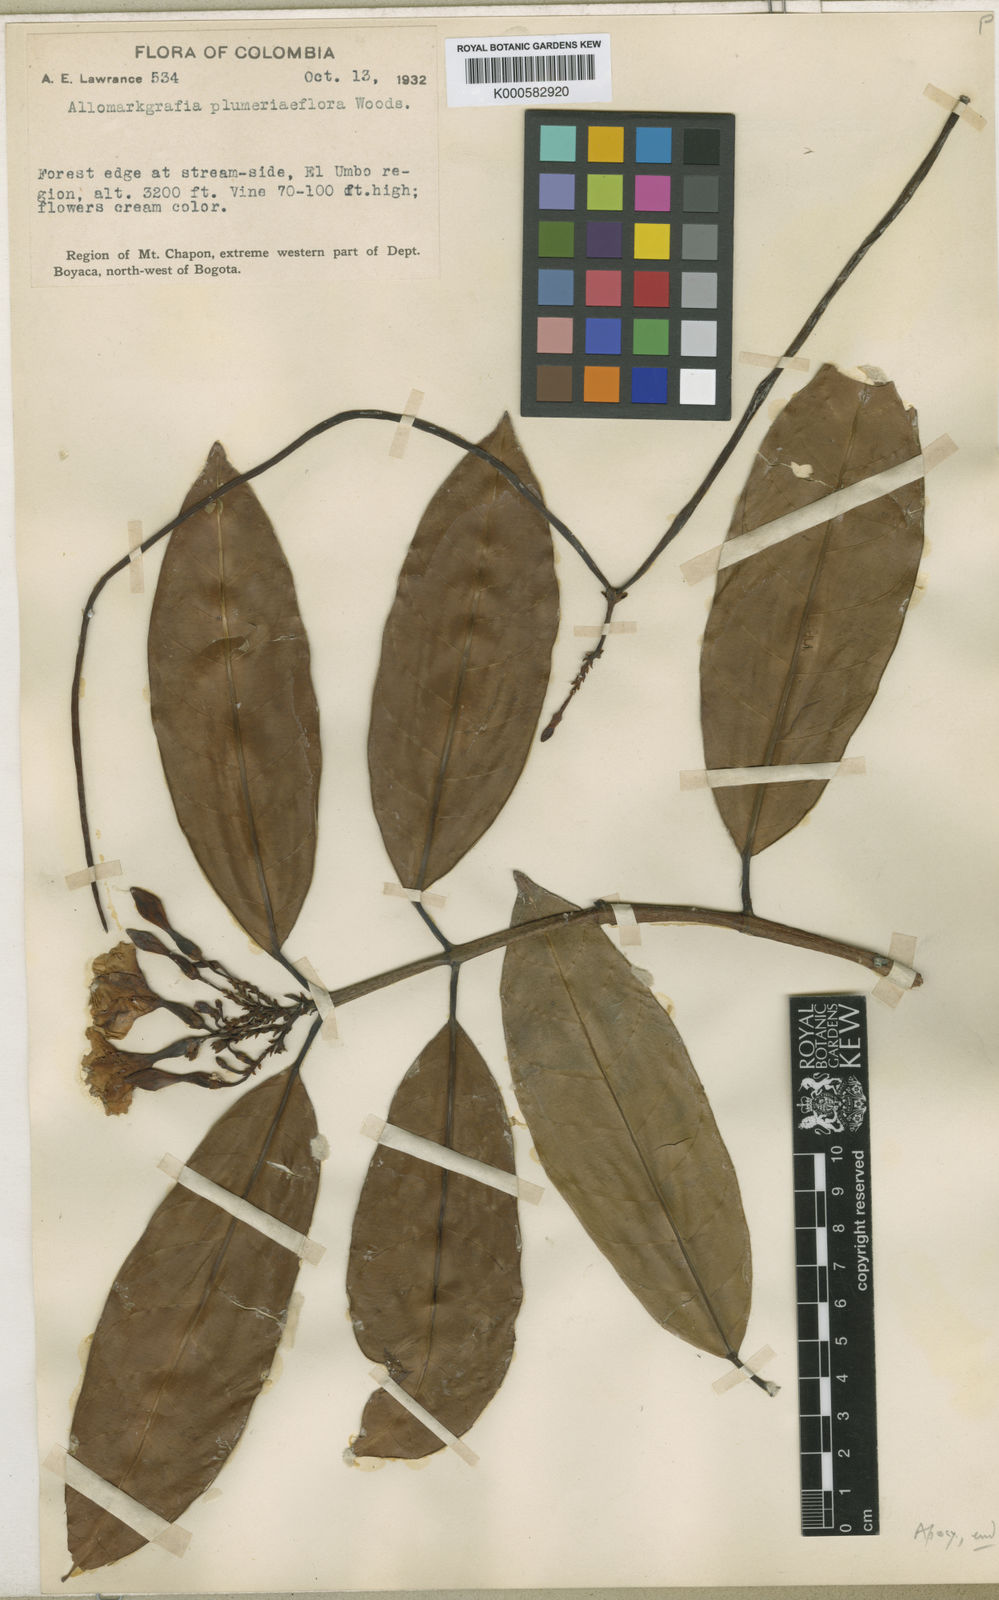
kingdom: Plantae
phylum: Tracheophyta
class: Magnoliopsida
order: Gentianales
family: Apocynaceae
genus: Allomarkgrafia
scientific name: Allomarkgrafia plumeriiflora
